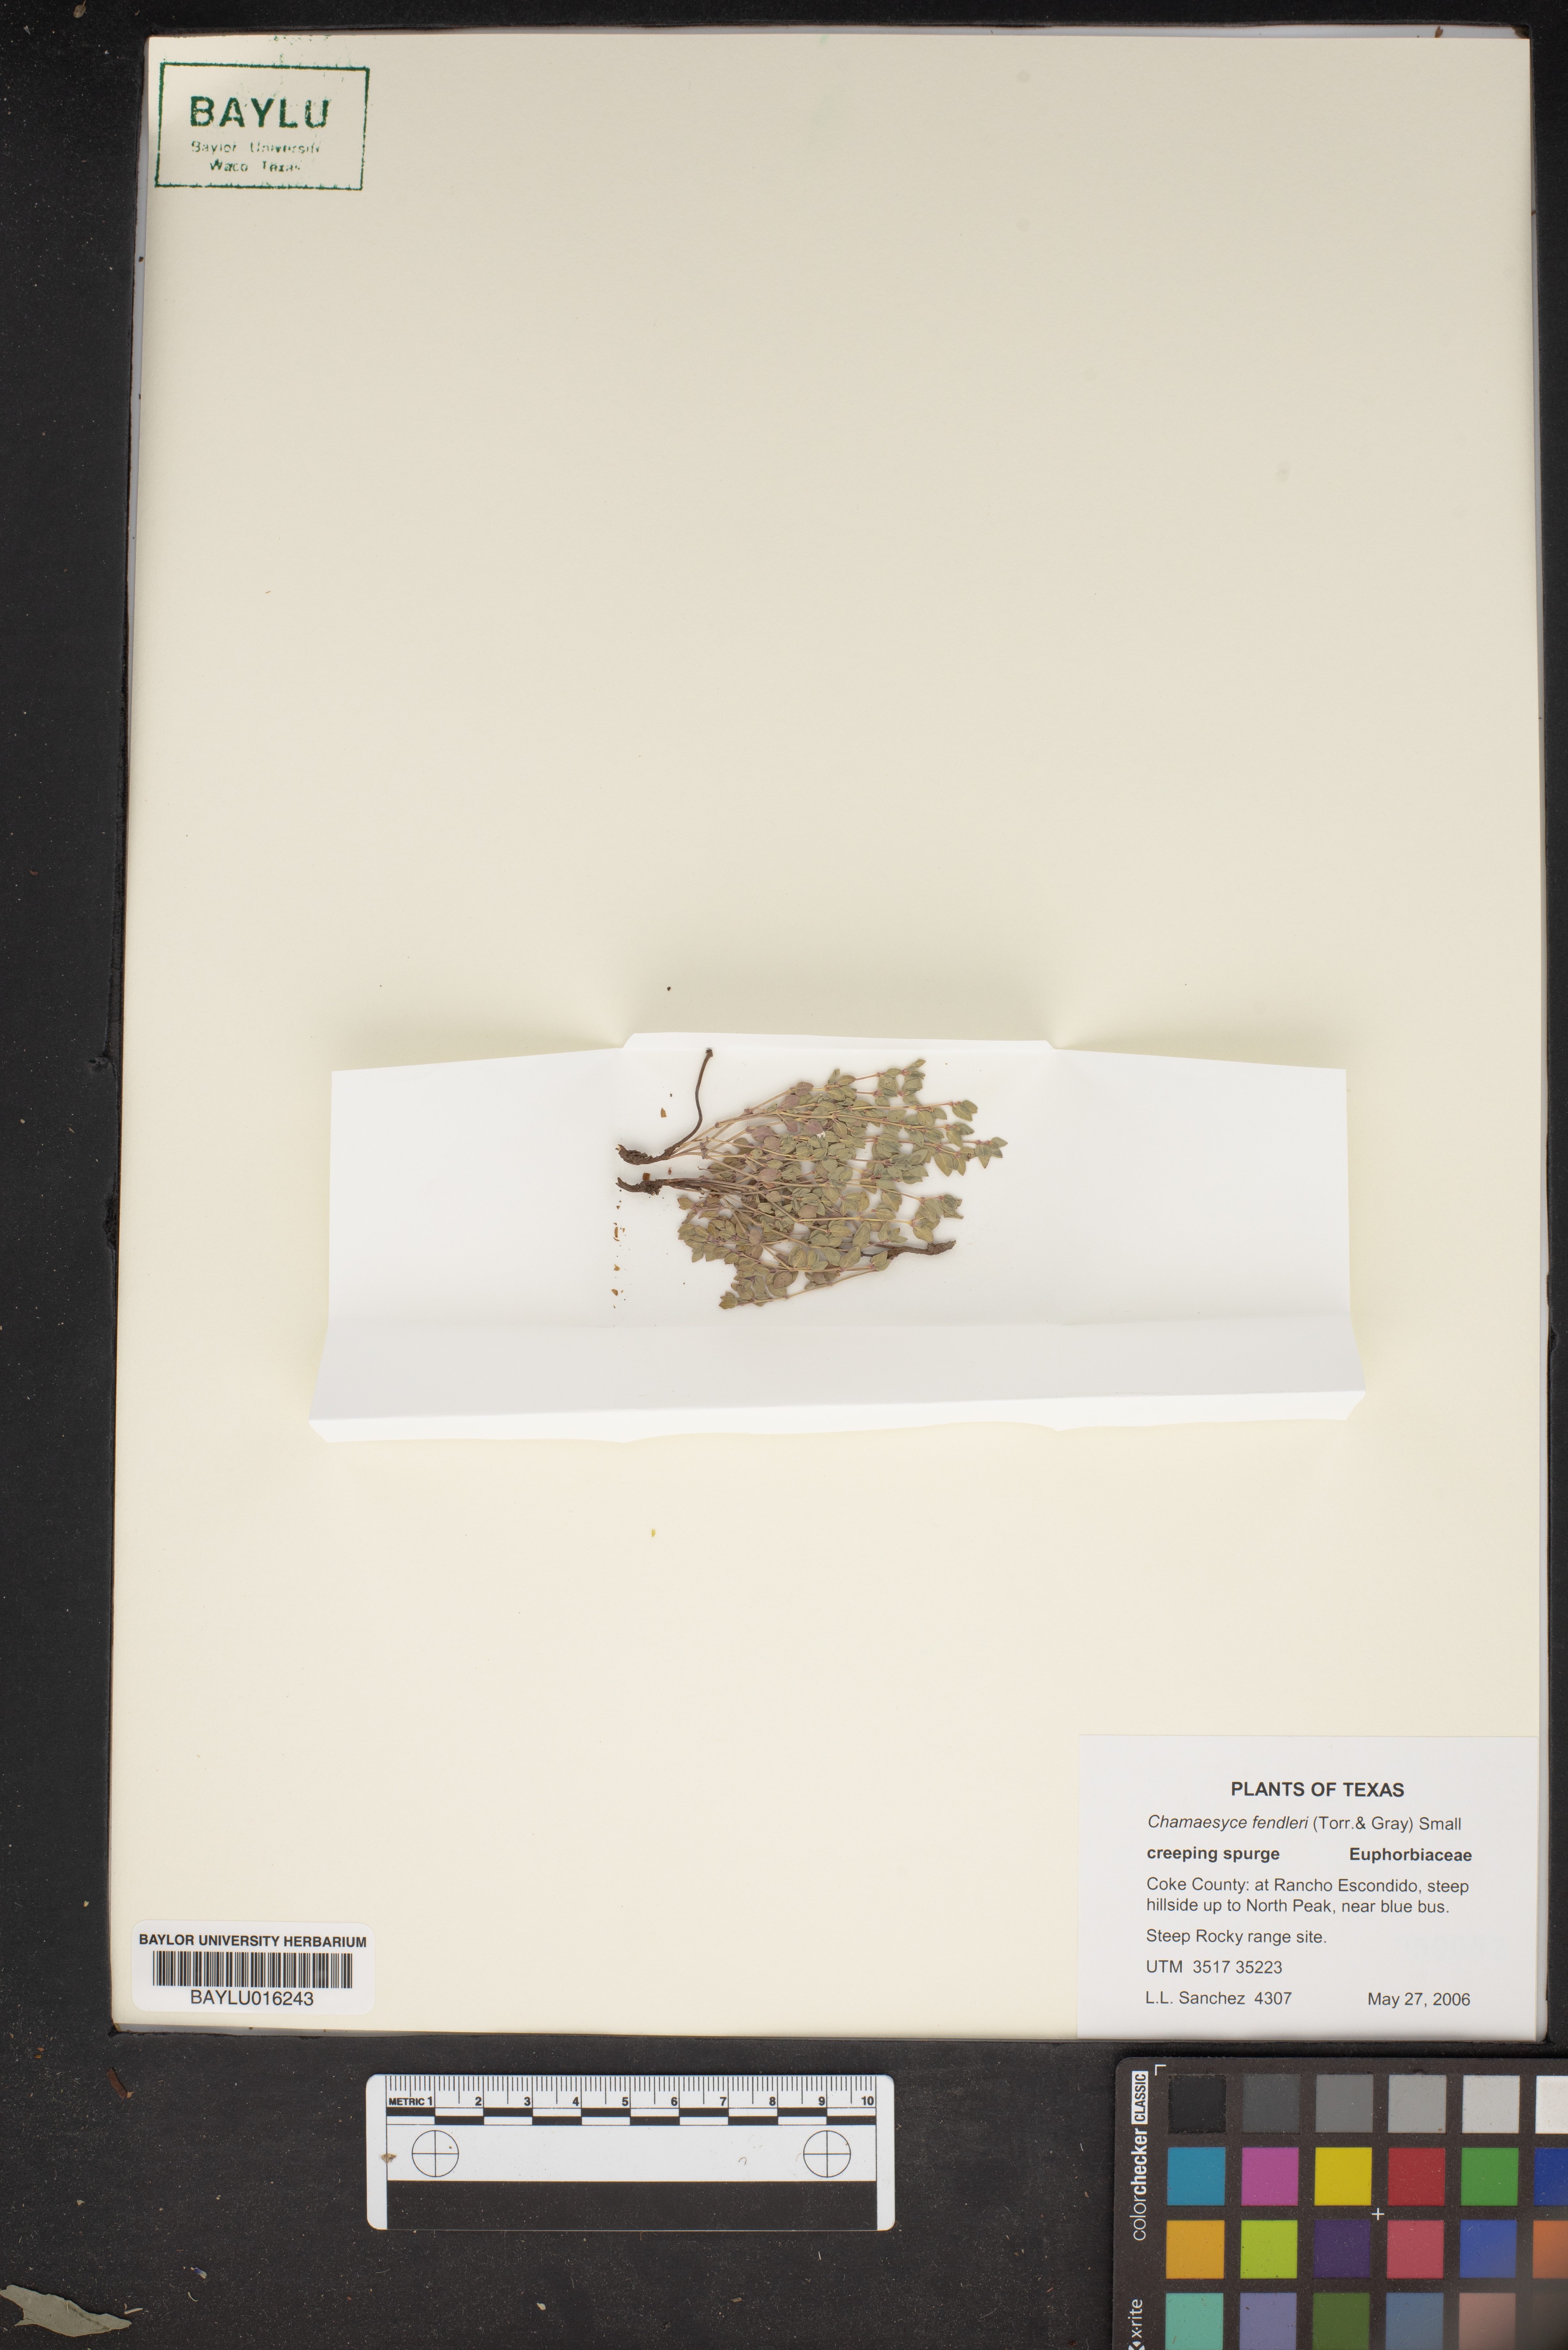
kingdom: Plantae
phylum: Tracheophyta
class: Magnoliopsida
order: Malpighiales
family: Euphorbiaceae
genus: Euphorbia
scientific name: Euphorbia fendleri
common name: Fendler's euphorbia
